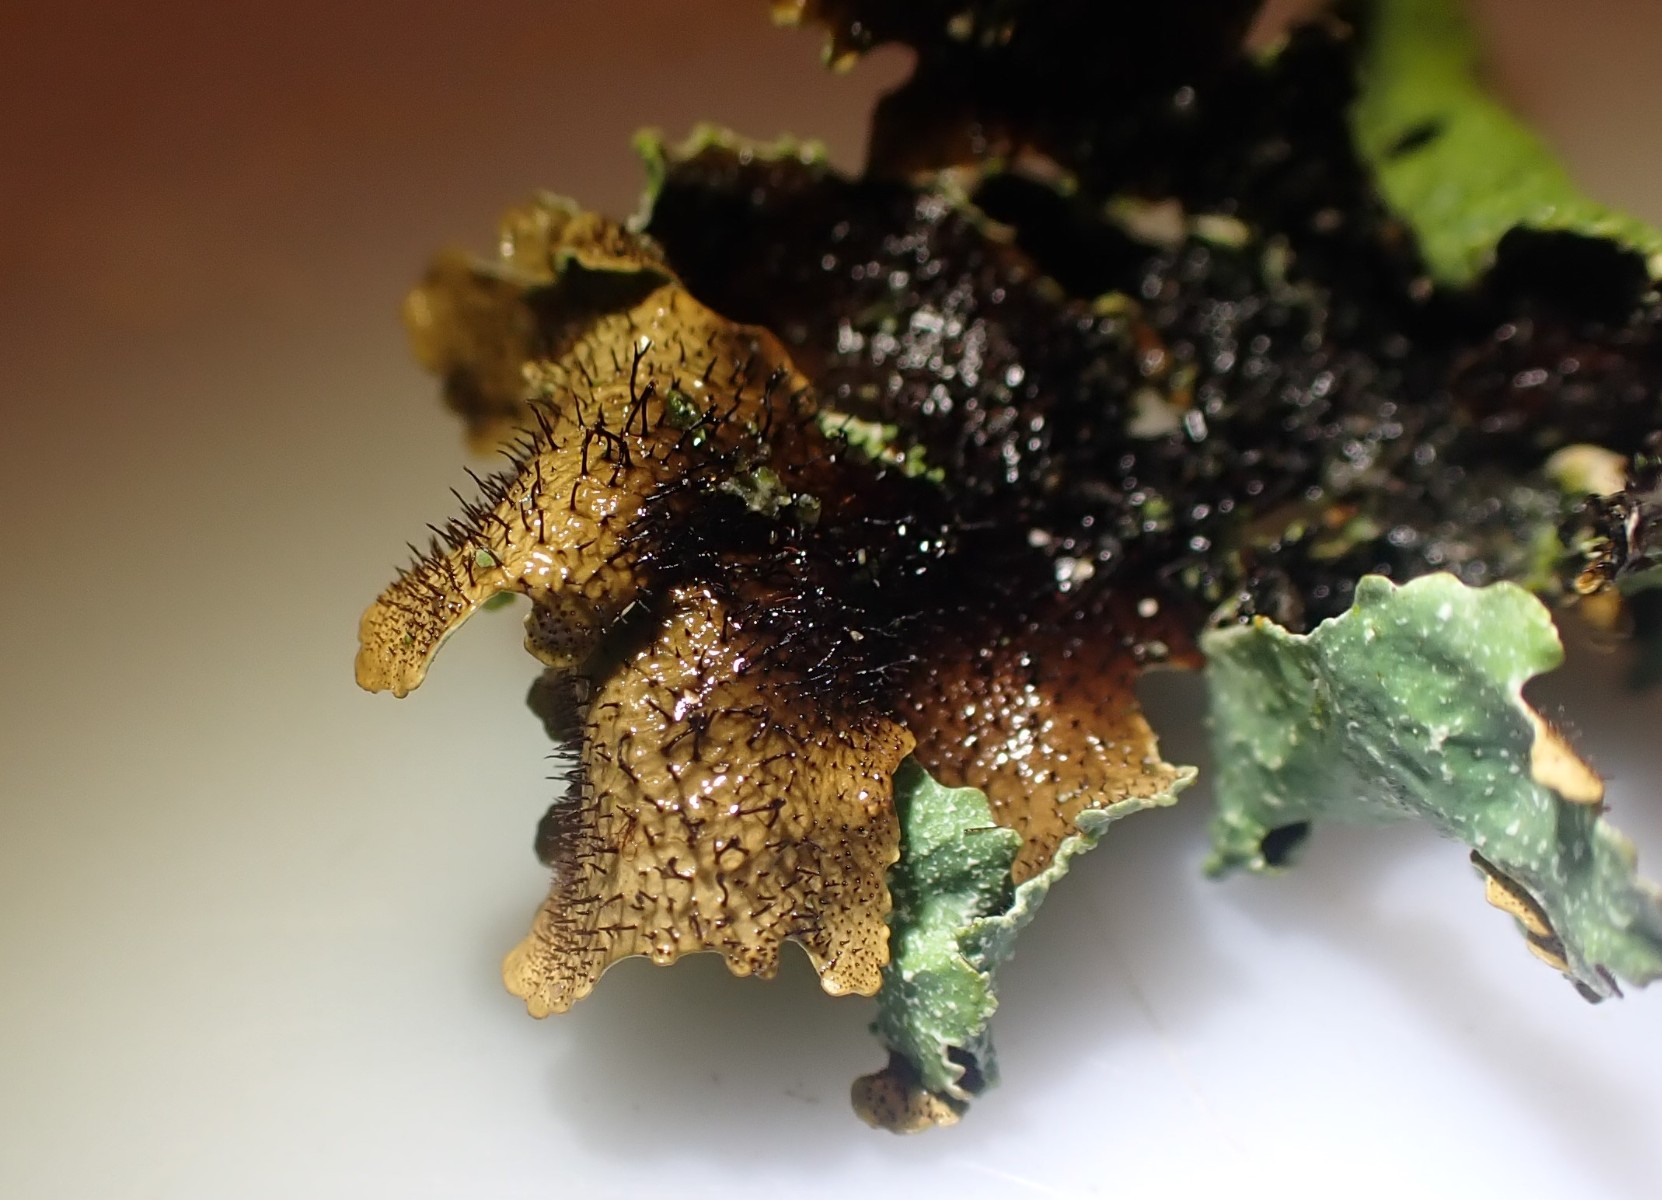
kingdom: Fungi
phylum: Ascomycota
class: Lecanoromycetes
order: Lecanorales
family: Parmeliaceae
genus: Parmelia
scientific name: Parmelia submontana
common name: langlobet skållav
